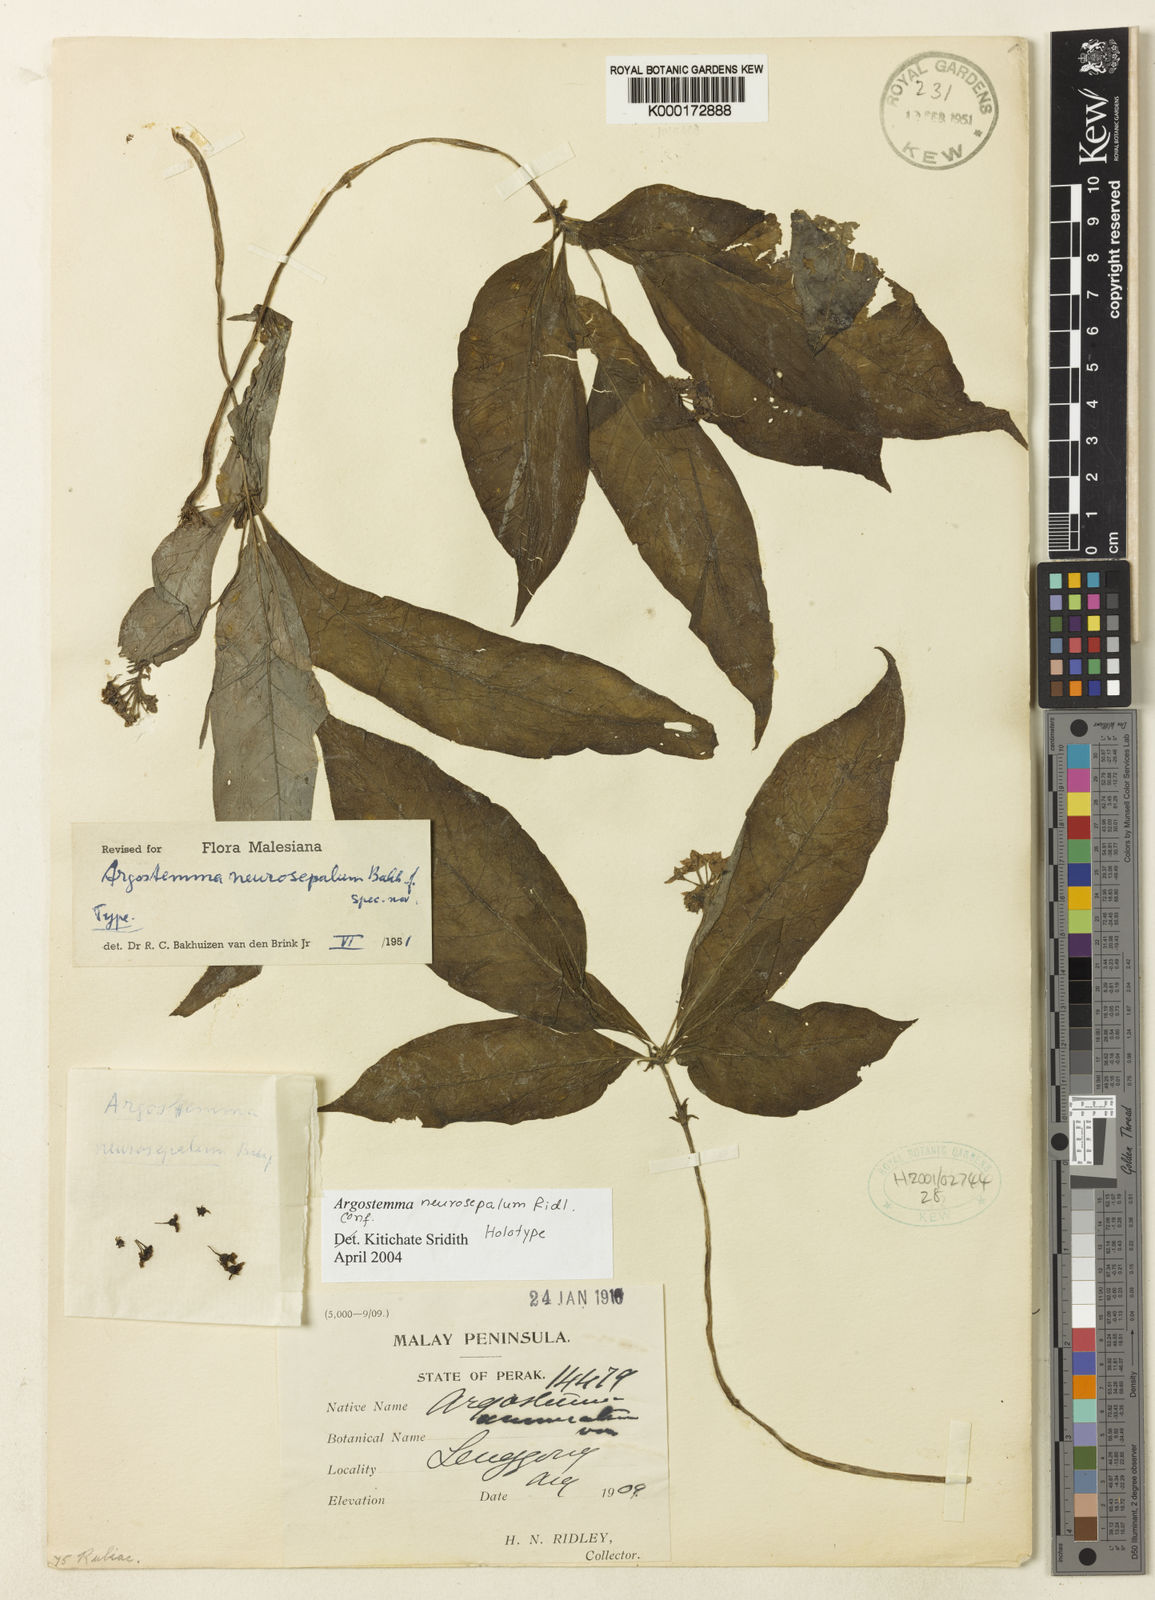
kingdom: Plantae
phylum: Tracheophyta
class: Magnoliopsida
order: Gentianales
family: Rubiaceae
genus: Argostemma
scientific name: Argostemma neurosepalum
